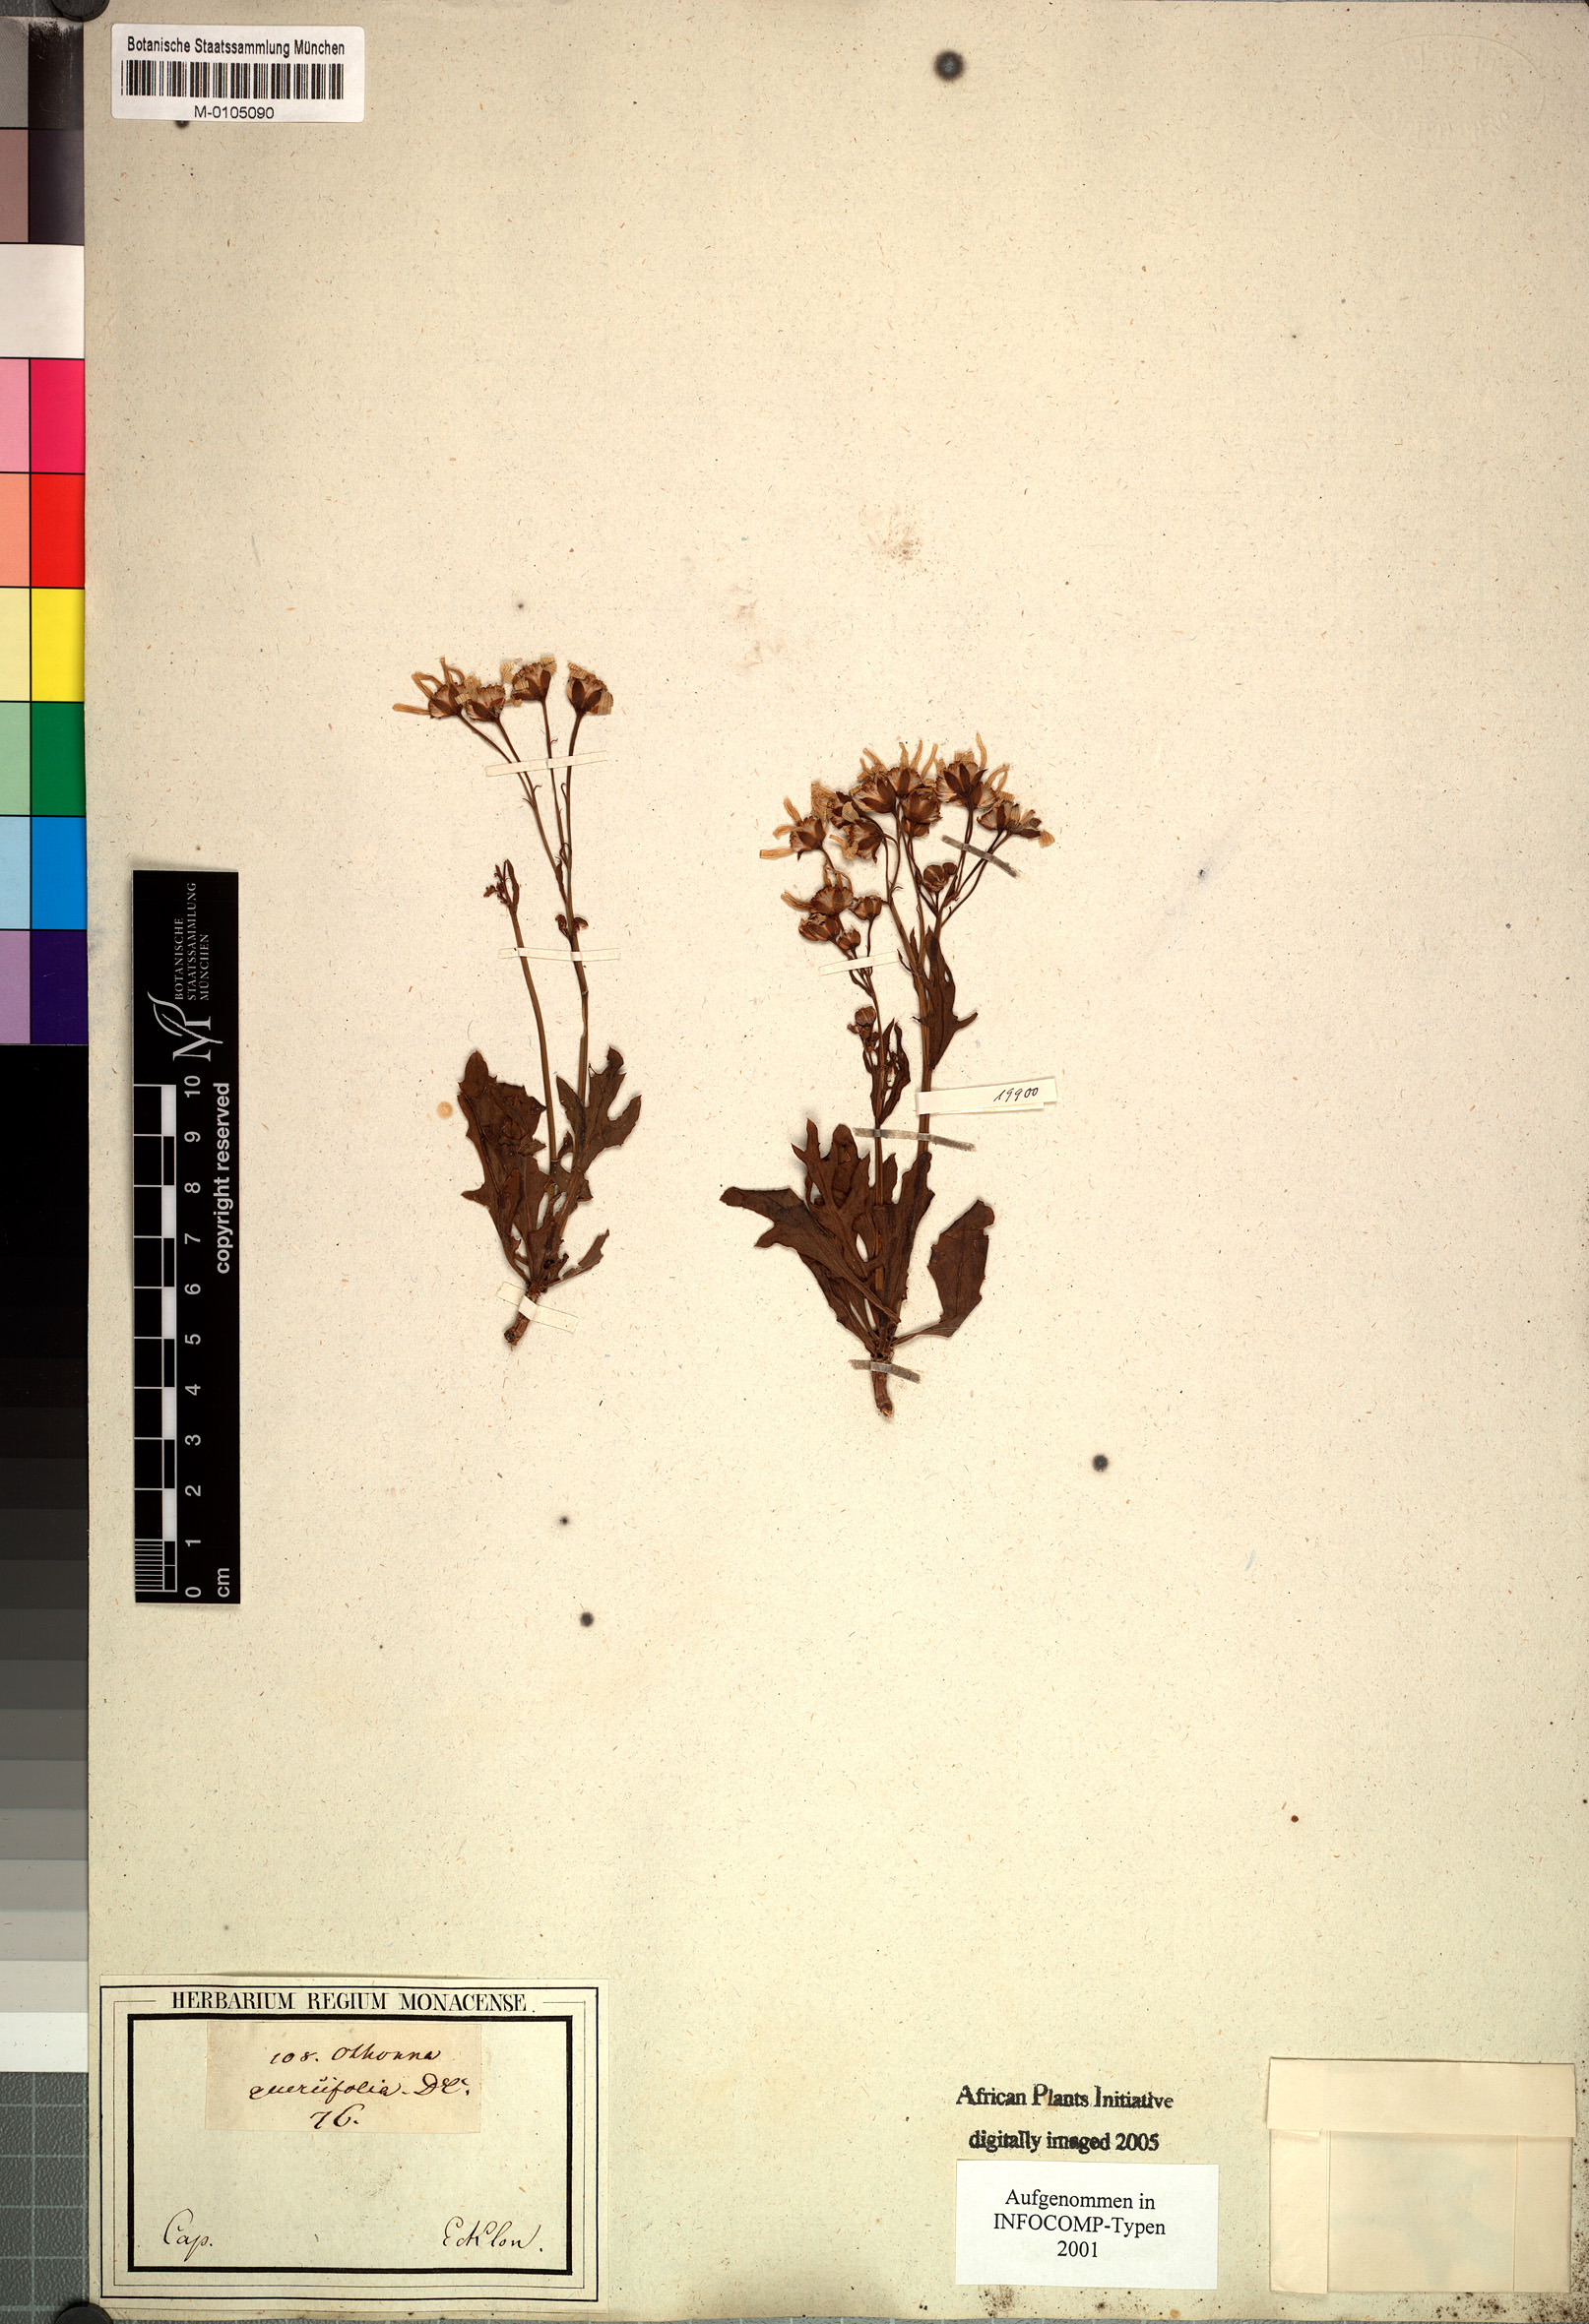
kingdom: Plantae
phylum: Tracheophyta
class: Magnoliopsida
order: Asterales
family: Asteraceae
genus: Othonna
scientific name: Othonna quercifolia
